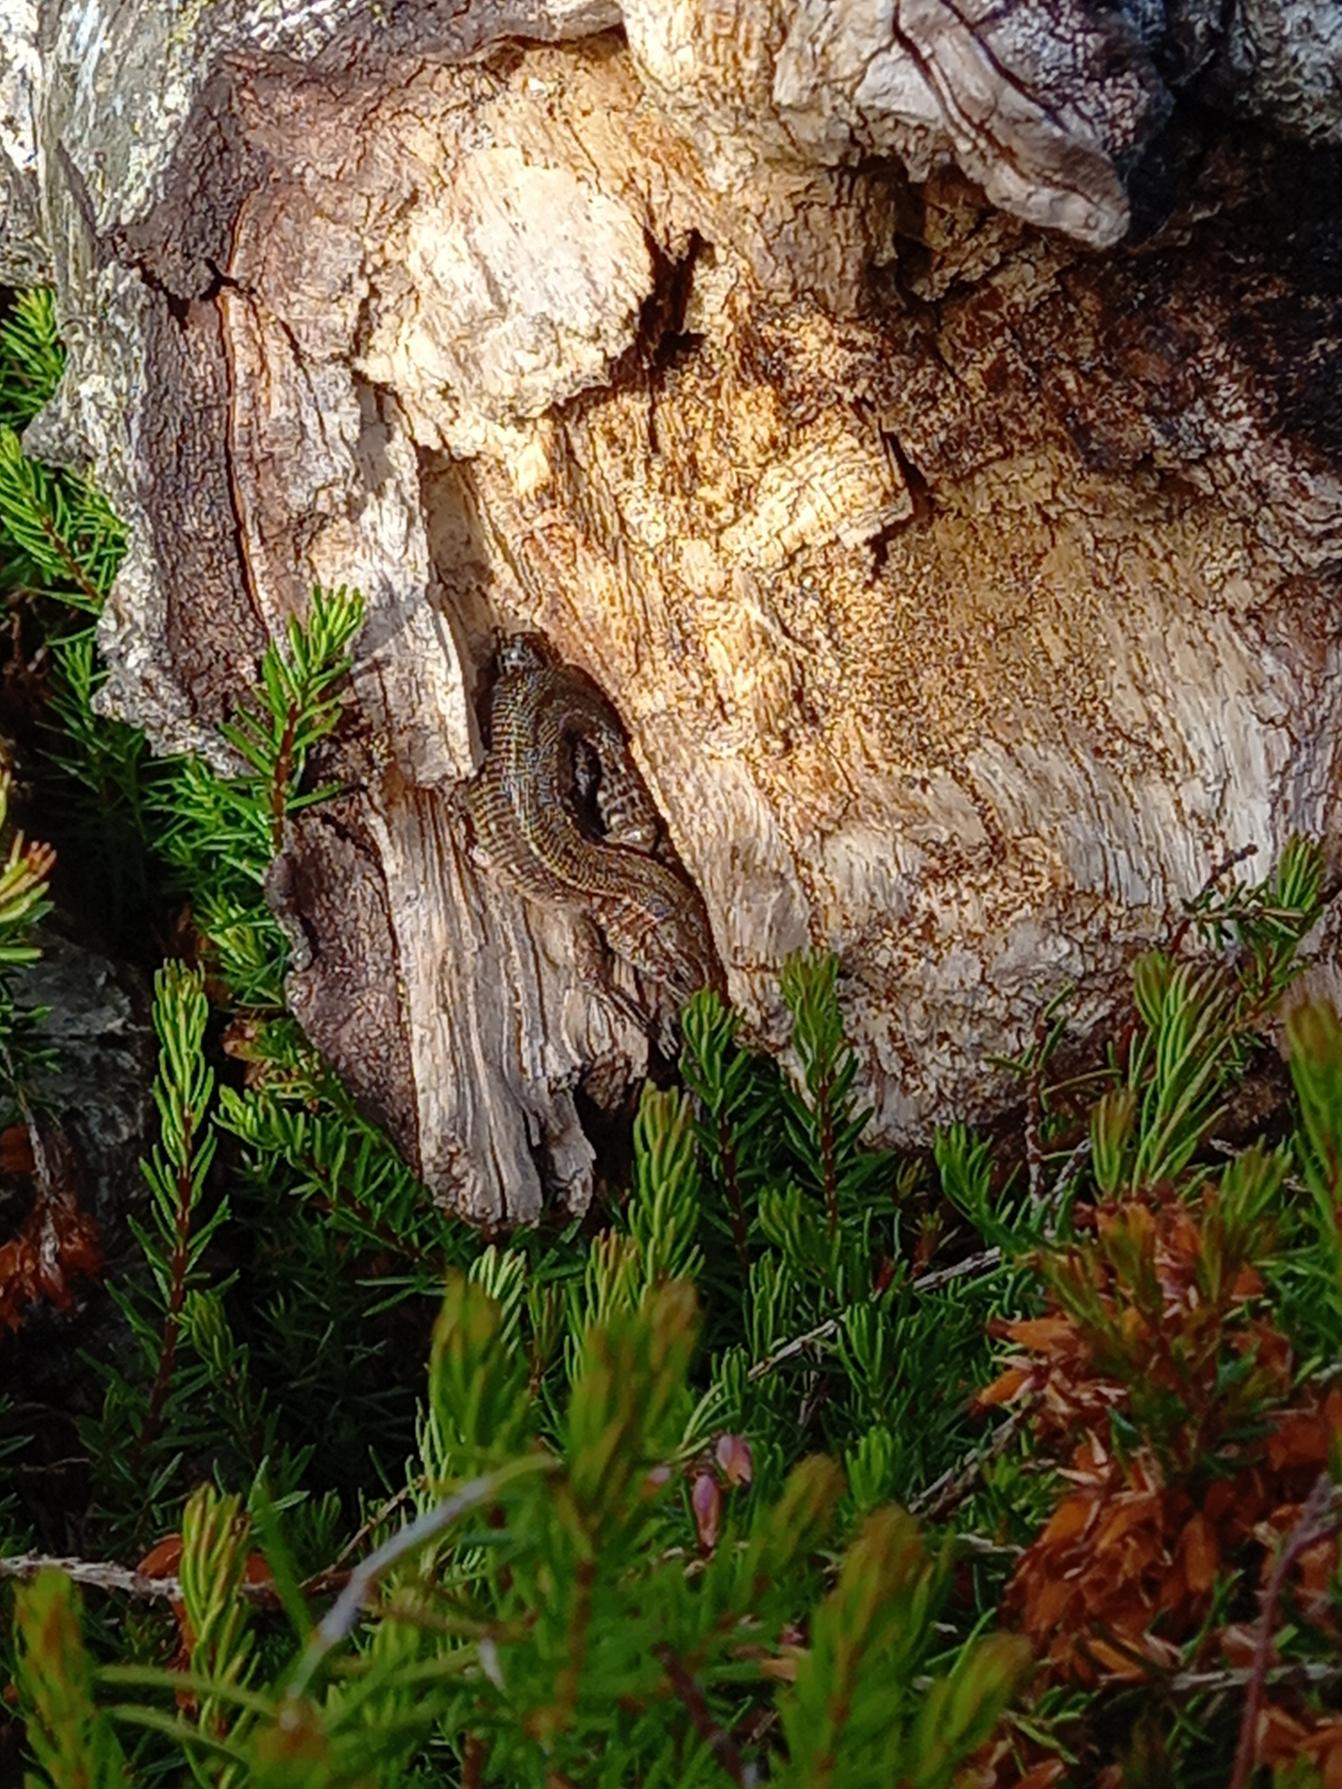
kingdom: Animalia
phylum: Chordata
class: Squamata
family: Lacertidae
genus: Zootoca
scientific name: Zootoca vivipara
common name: Skovfirben
